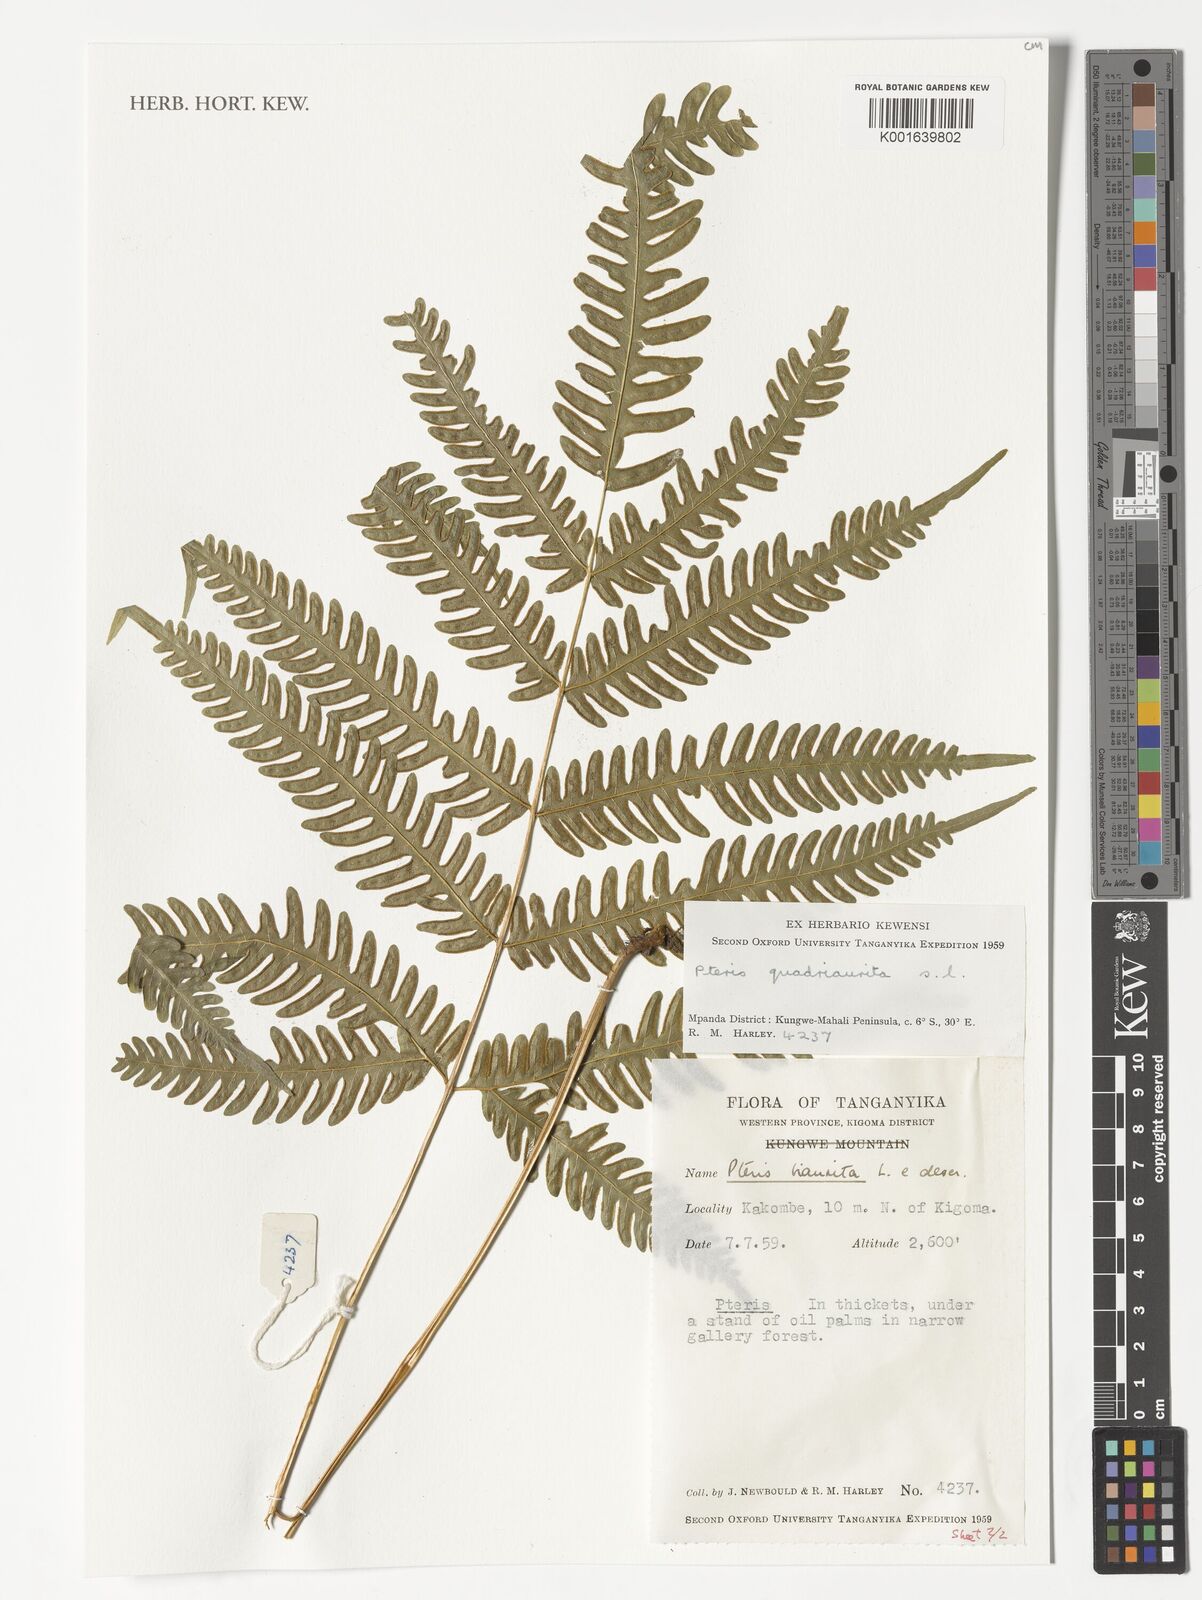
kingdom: Plantae
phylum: Tracheophyta
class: Polypodiopsida
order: Polypodiales
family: Pteridaceae
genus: Pteris
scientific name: Pteris quadriaurita
